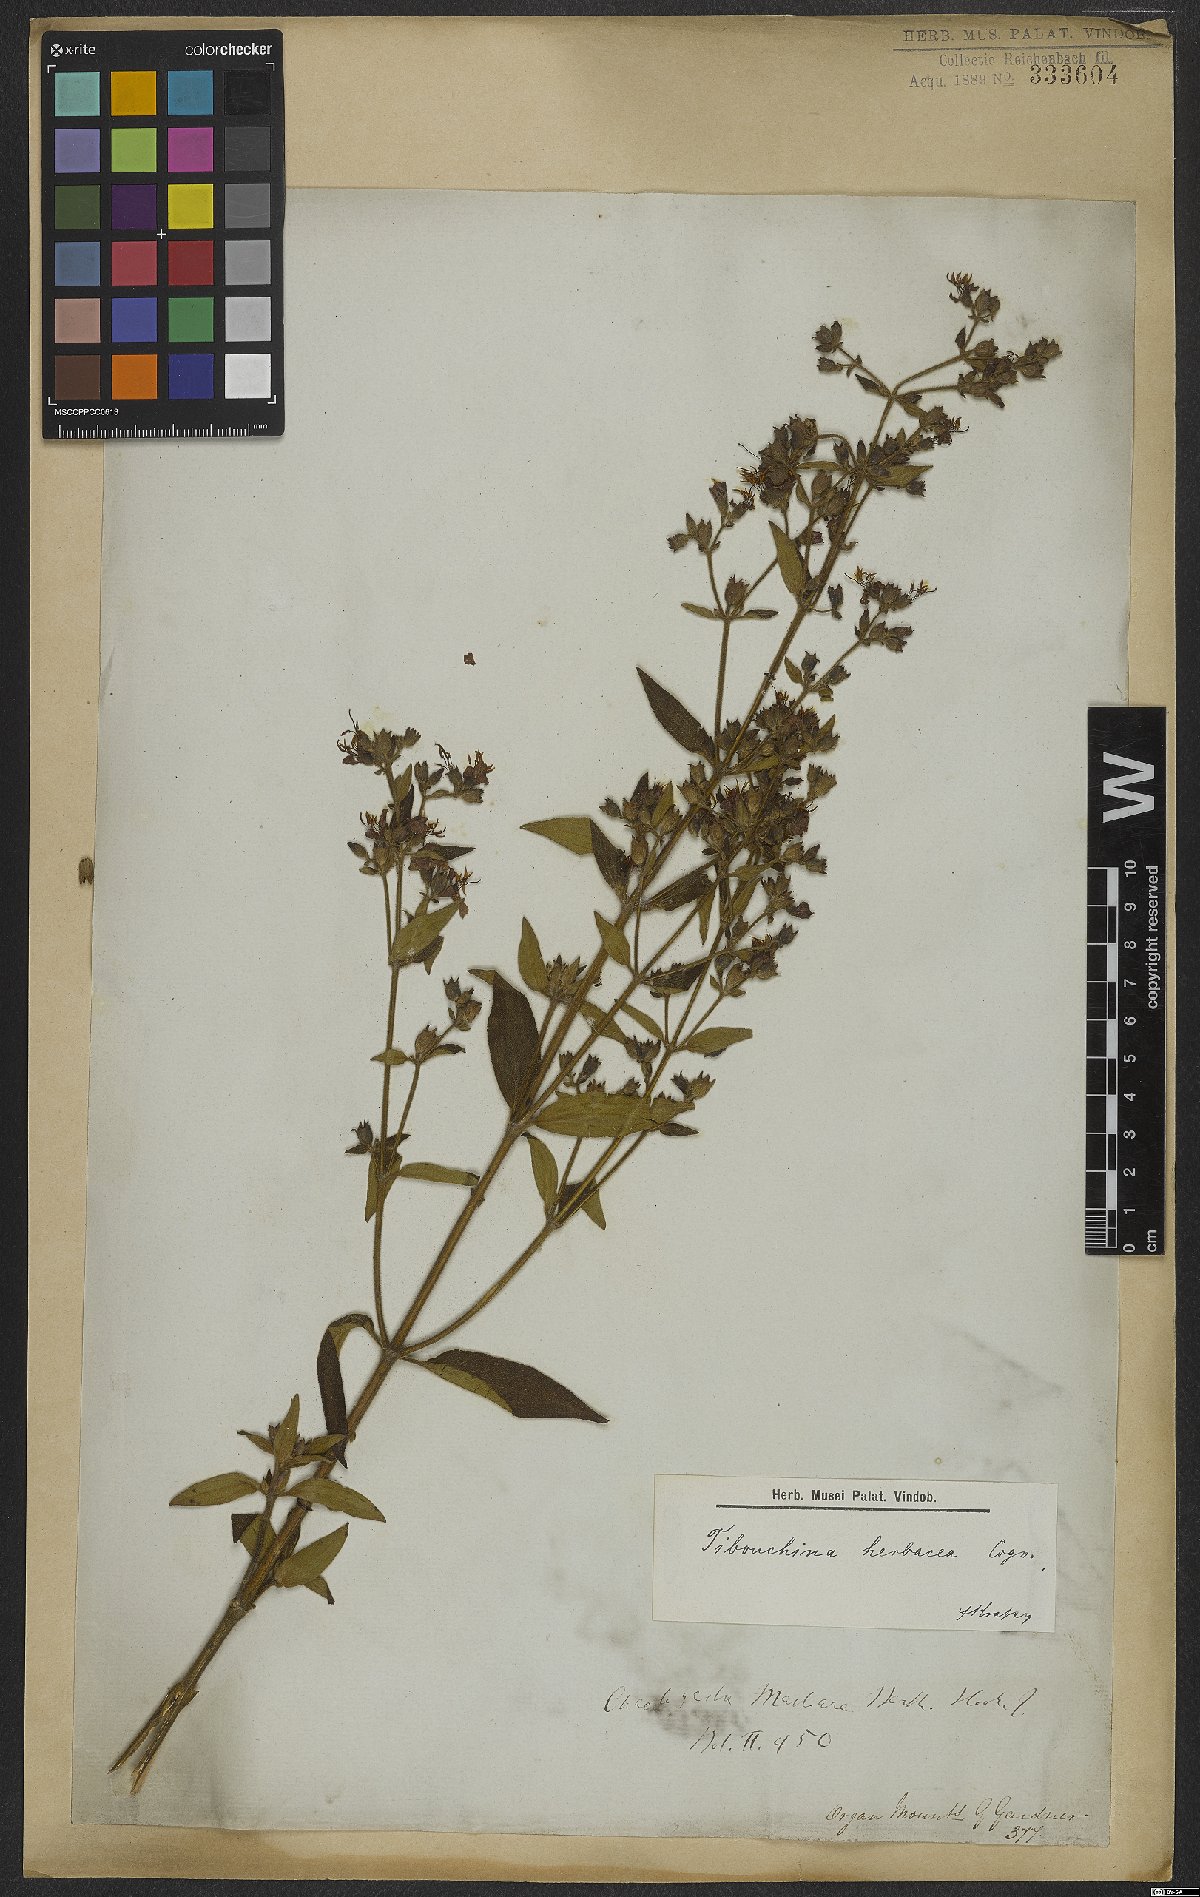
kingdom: Plantae
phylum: Tracheophyta
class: Magnoliopsida
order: Myrtales
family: Melastomataceae
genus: Chaetogastra
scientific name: Chaetogastra herbacea
